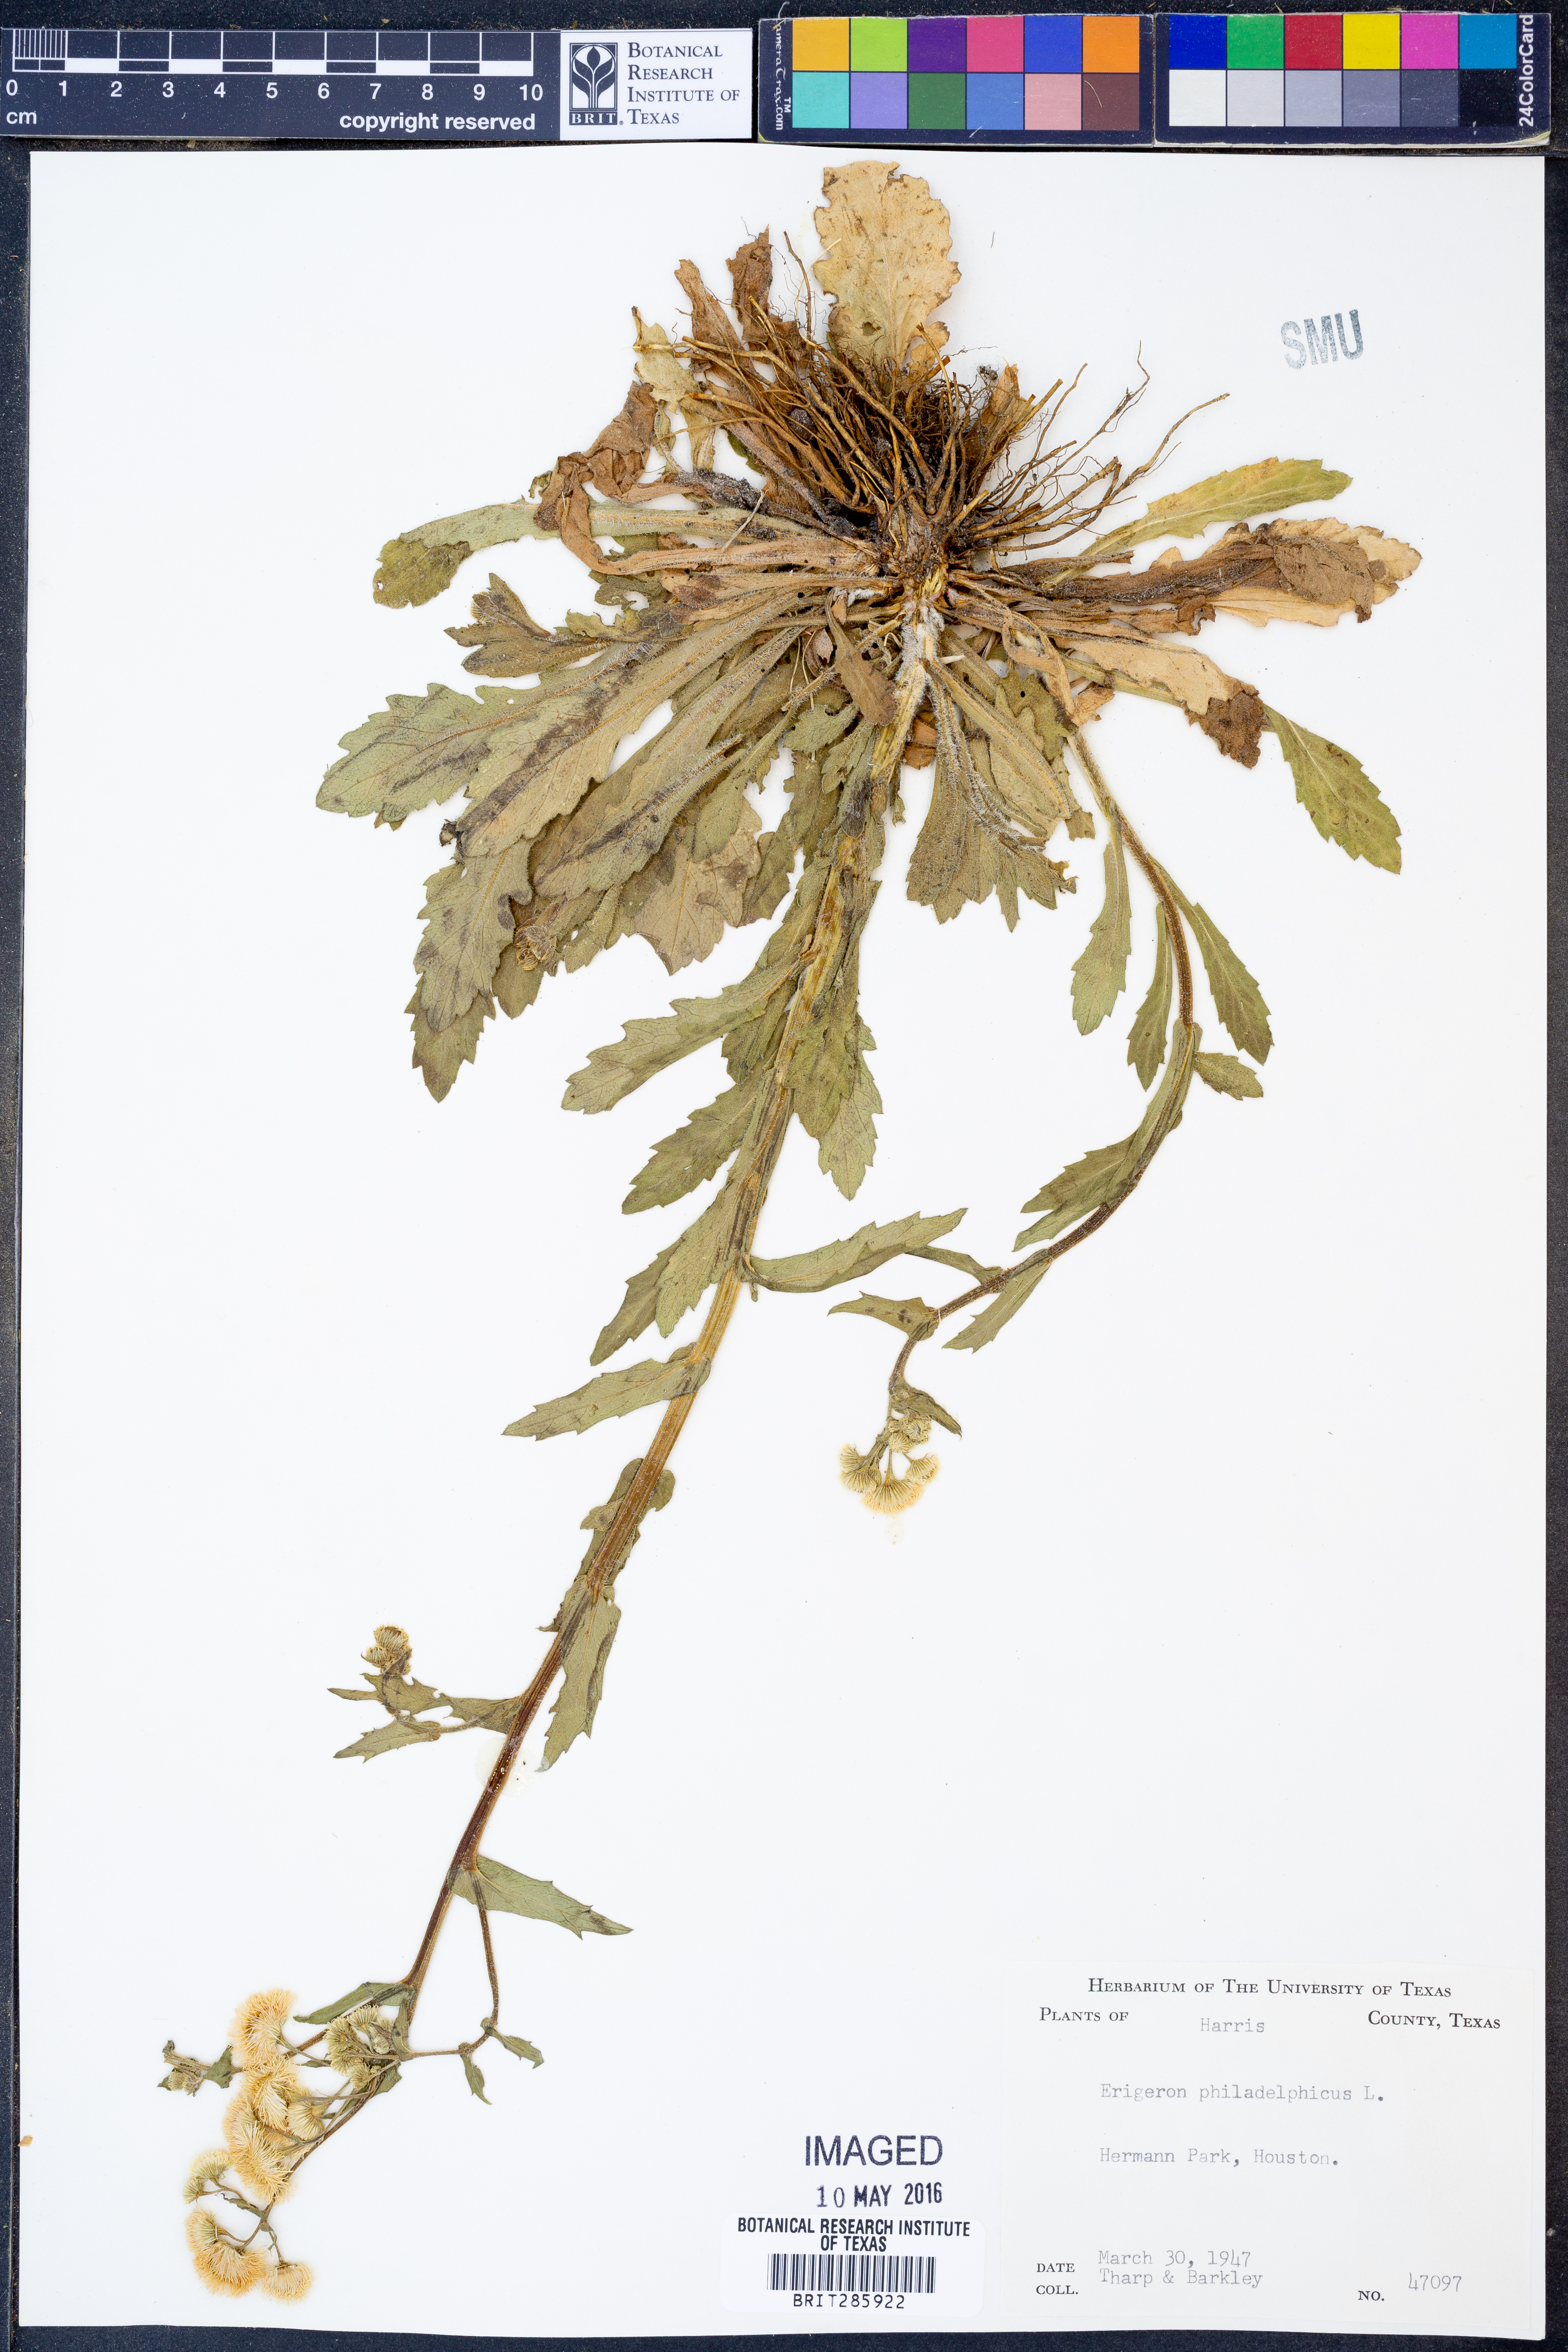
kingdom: Plantae
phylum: Tracheophyta
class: Magnoliopsida
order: Asterales
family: Asteraceae
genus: Erigeron
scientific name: Erigeron philadelphicus
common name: Robin's-plantain
